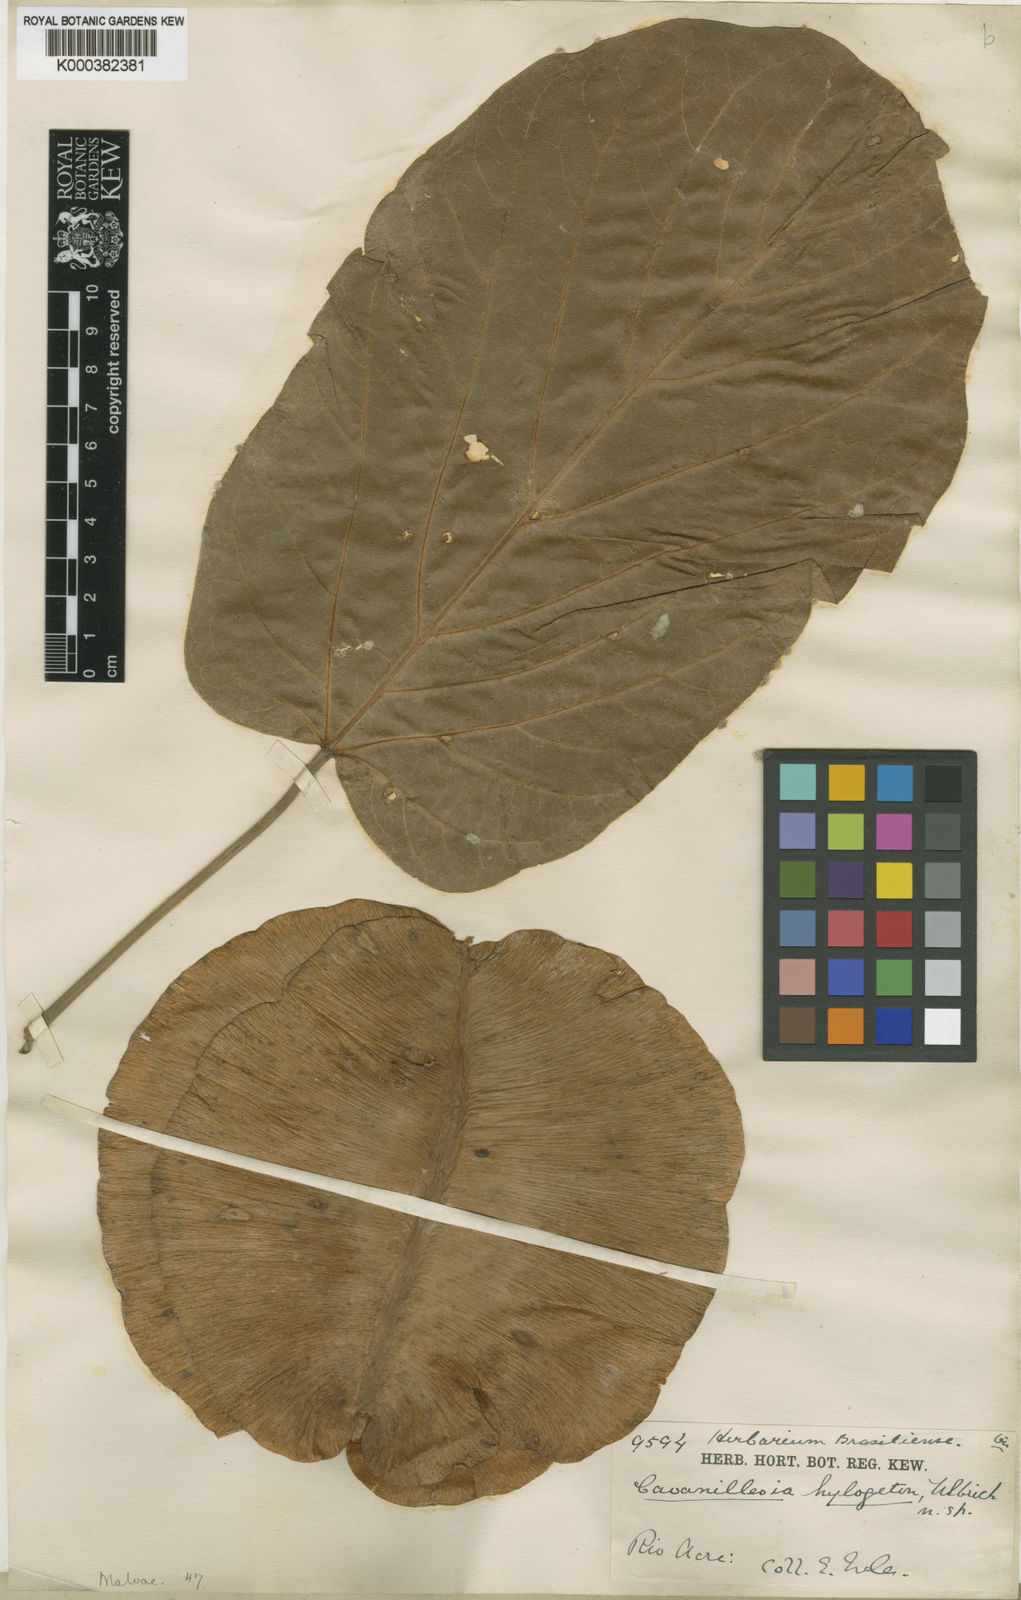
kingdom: Plantae
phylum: Tracheophyta
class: Magnoliopsida
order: Malvales
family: Malvaceae
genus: Cavanillesia
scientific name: Cavanillesia hylogeiton
